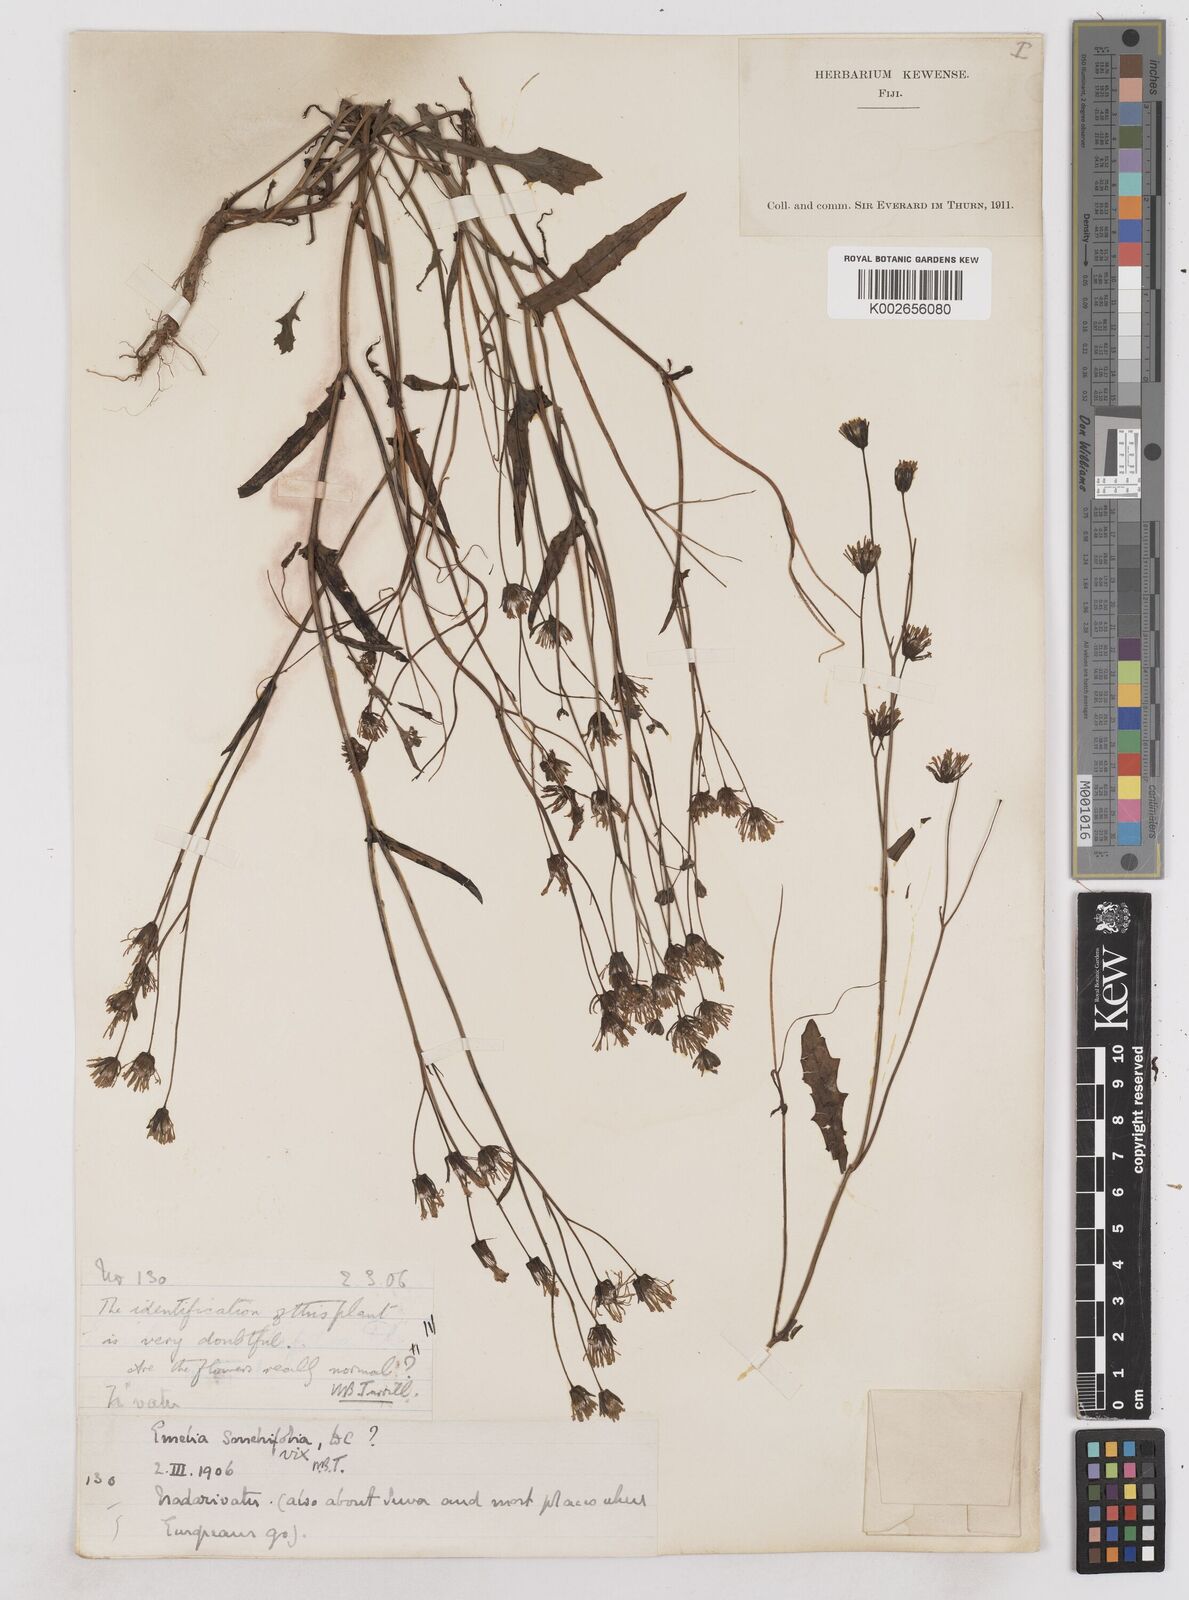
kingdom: Plantae
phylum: Tracheophyta
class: Magnoliopsida
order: Asterales
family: Asteraceae
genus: Emilia
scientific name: Emilia sonchifolia
